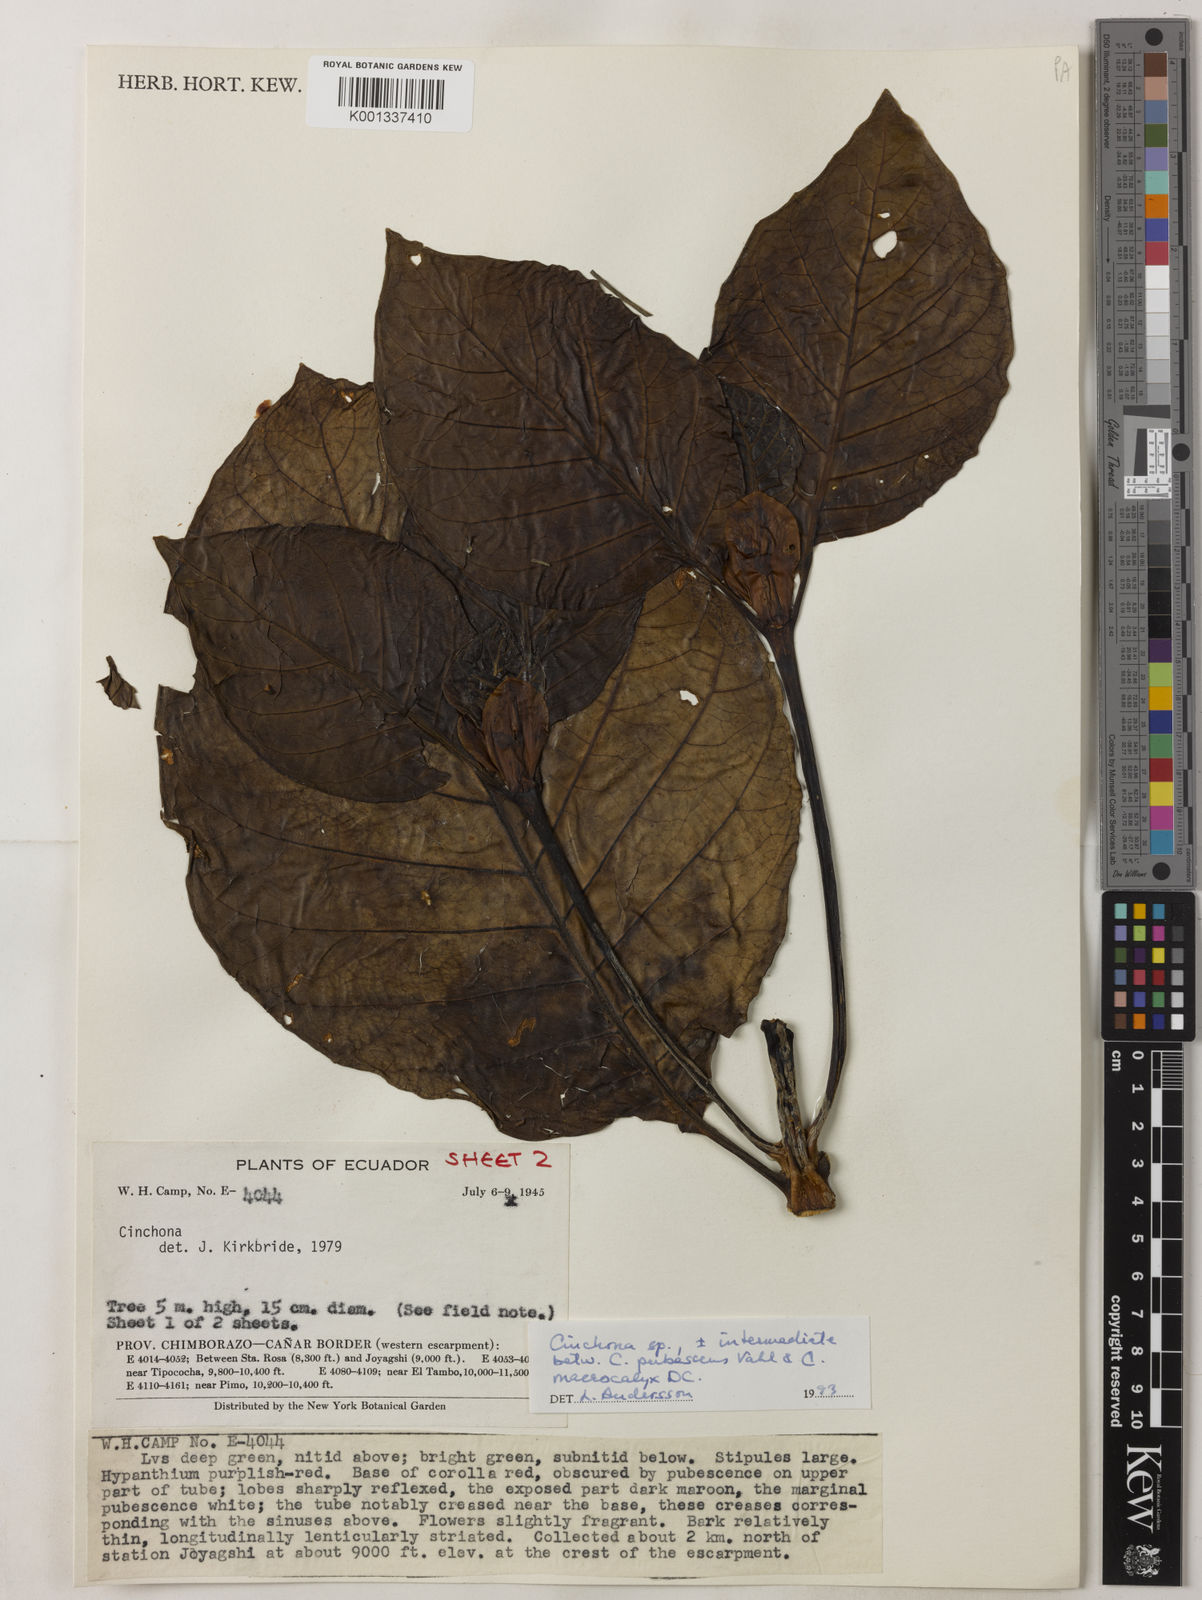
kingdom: Plantae
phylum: Tracheophyta
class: Magnoliopsida
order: Gentianales
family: Rubiaceae
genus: Cinchona
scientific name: Cinchona pubescens
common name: Quinine
